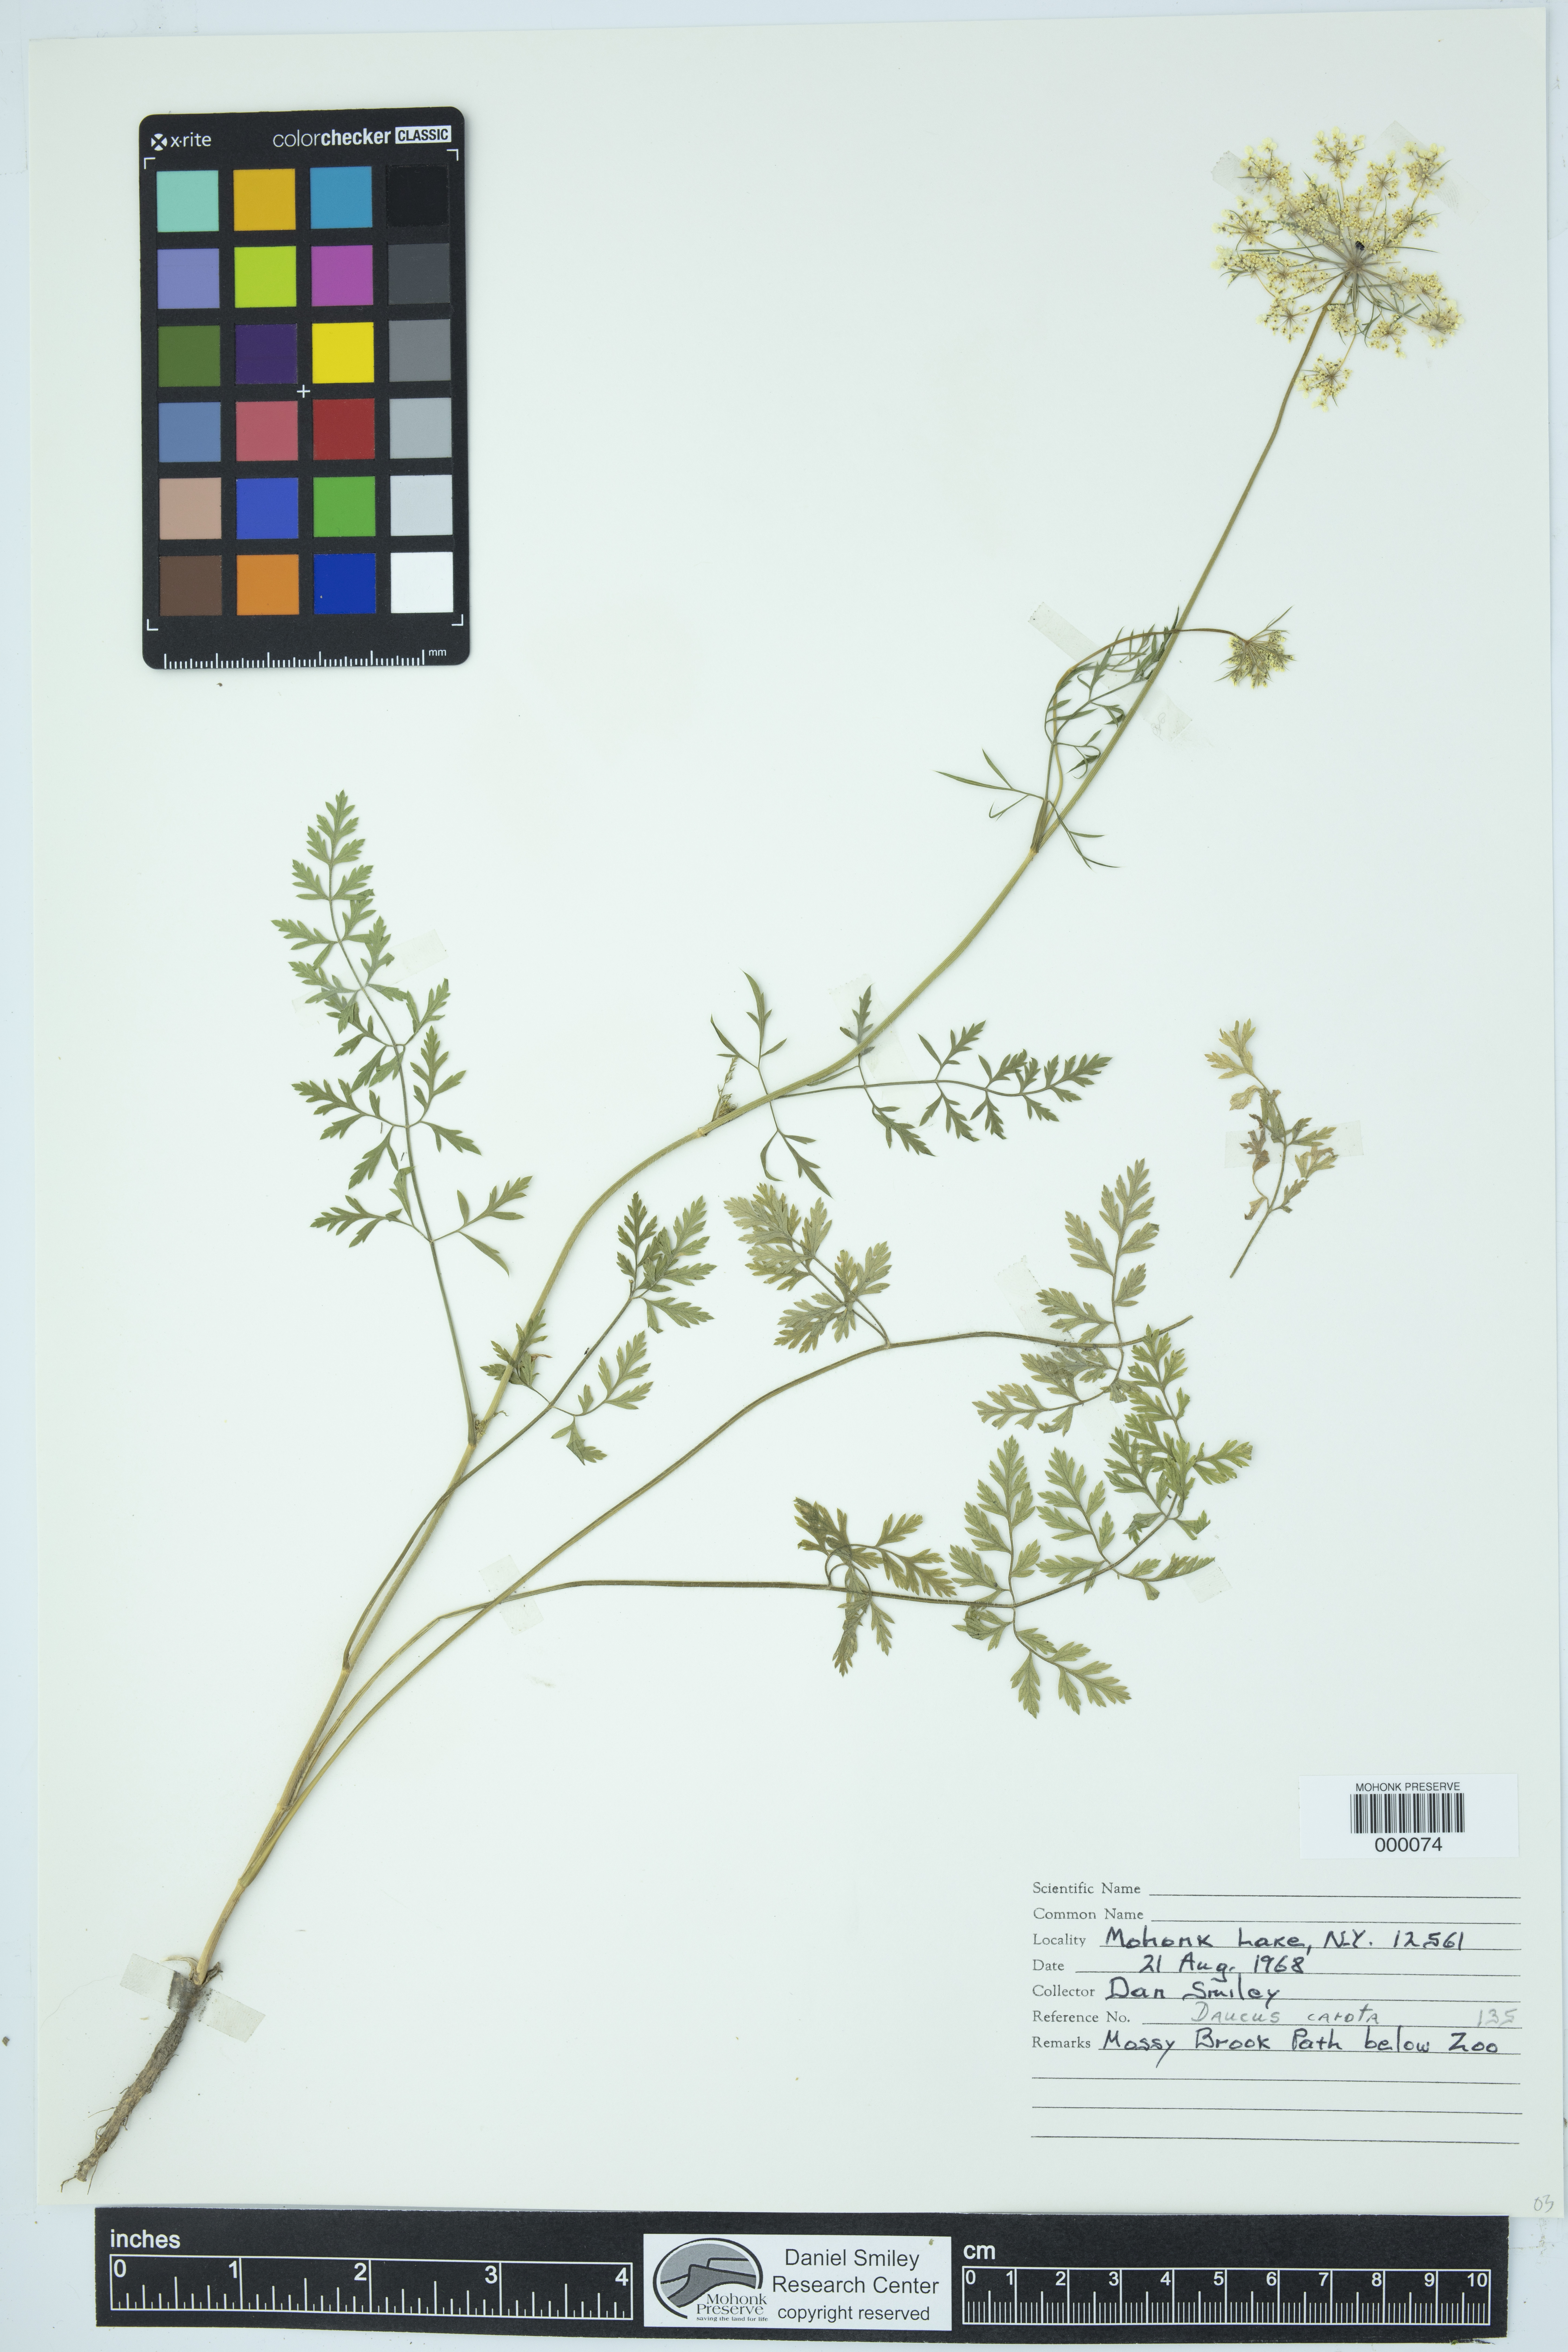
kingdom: Plantae
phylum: Tracheophyta
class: Magnoliopsida
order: Apiales
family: Apiaceae
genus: Daucus
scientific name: Daucus carota
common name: Wild carrot
